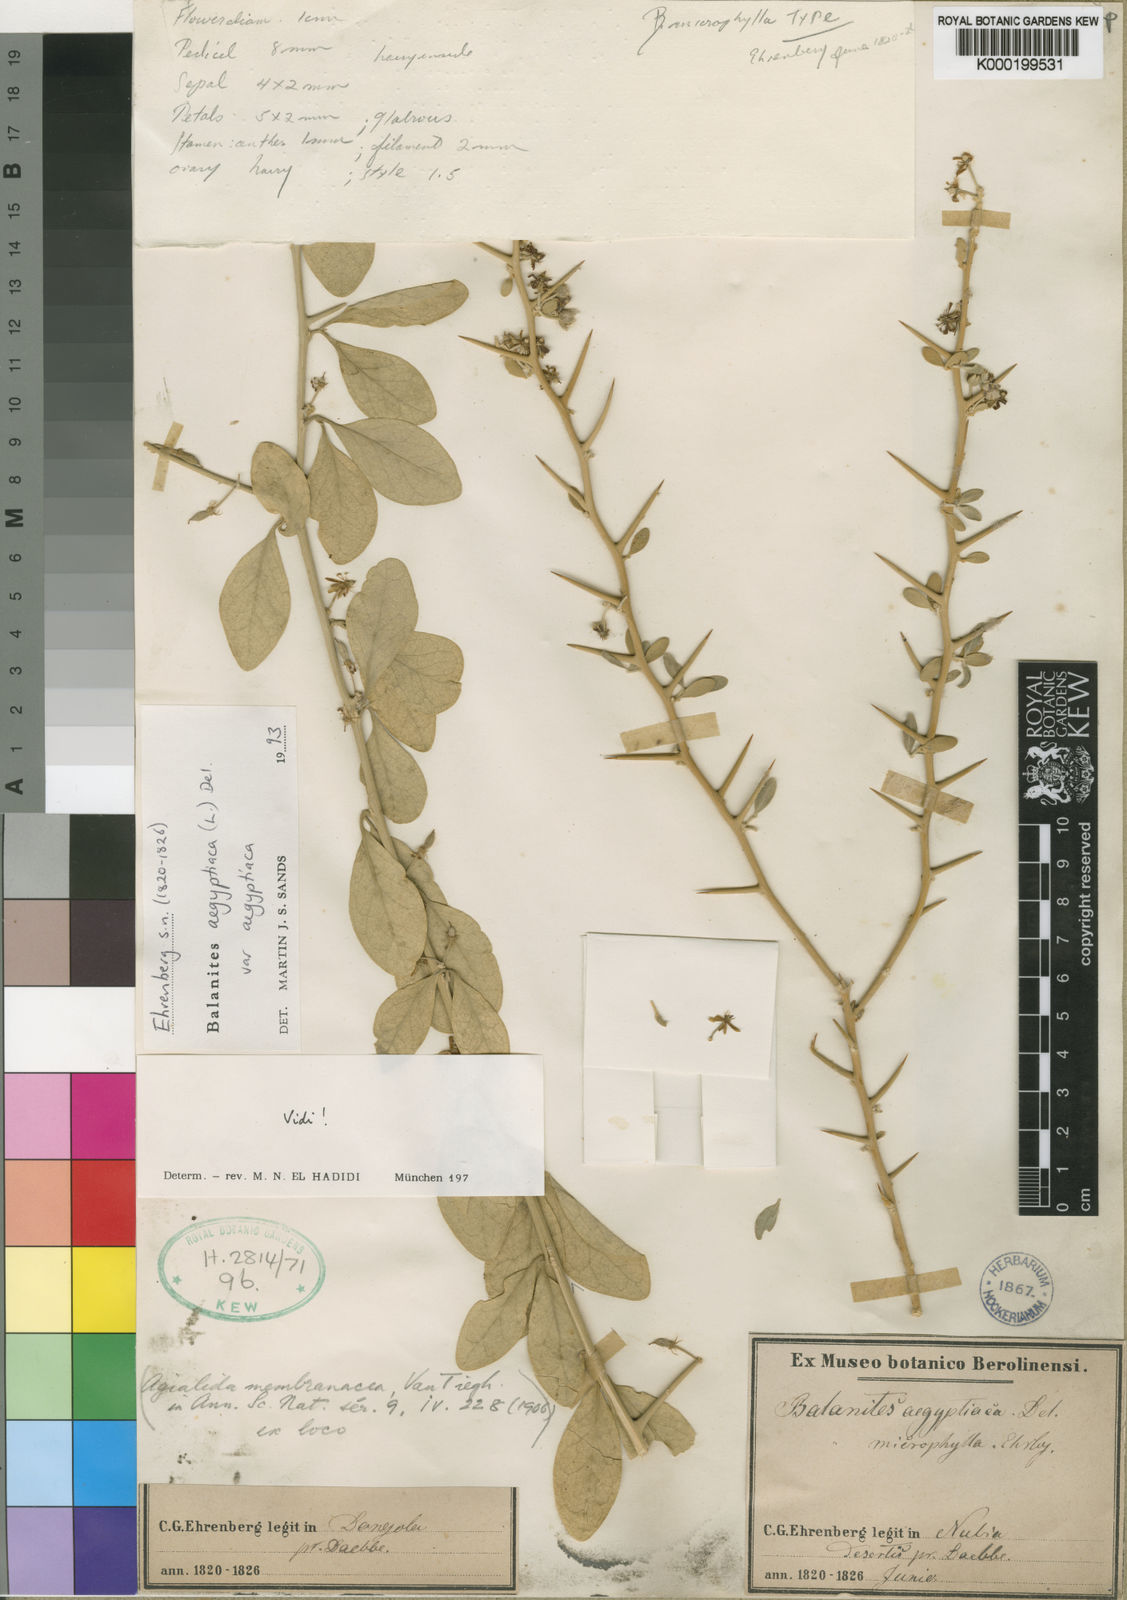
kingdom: Plantae
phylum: Tracheophyta
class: Magnoliopsida
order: Zygophyllales
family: Zygophyllaceae
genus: Balanites
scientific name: Balanites aegyptiaca
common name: Balanites
